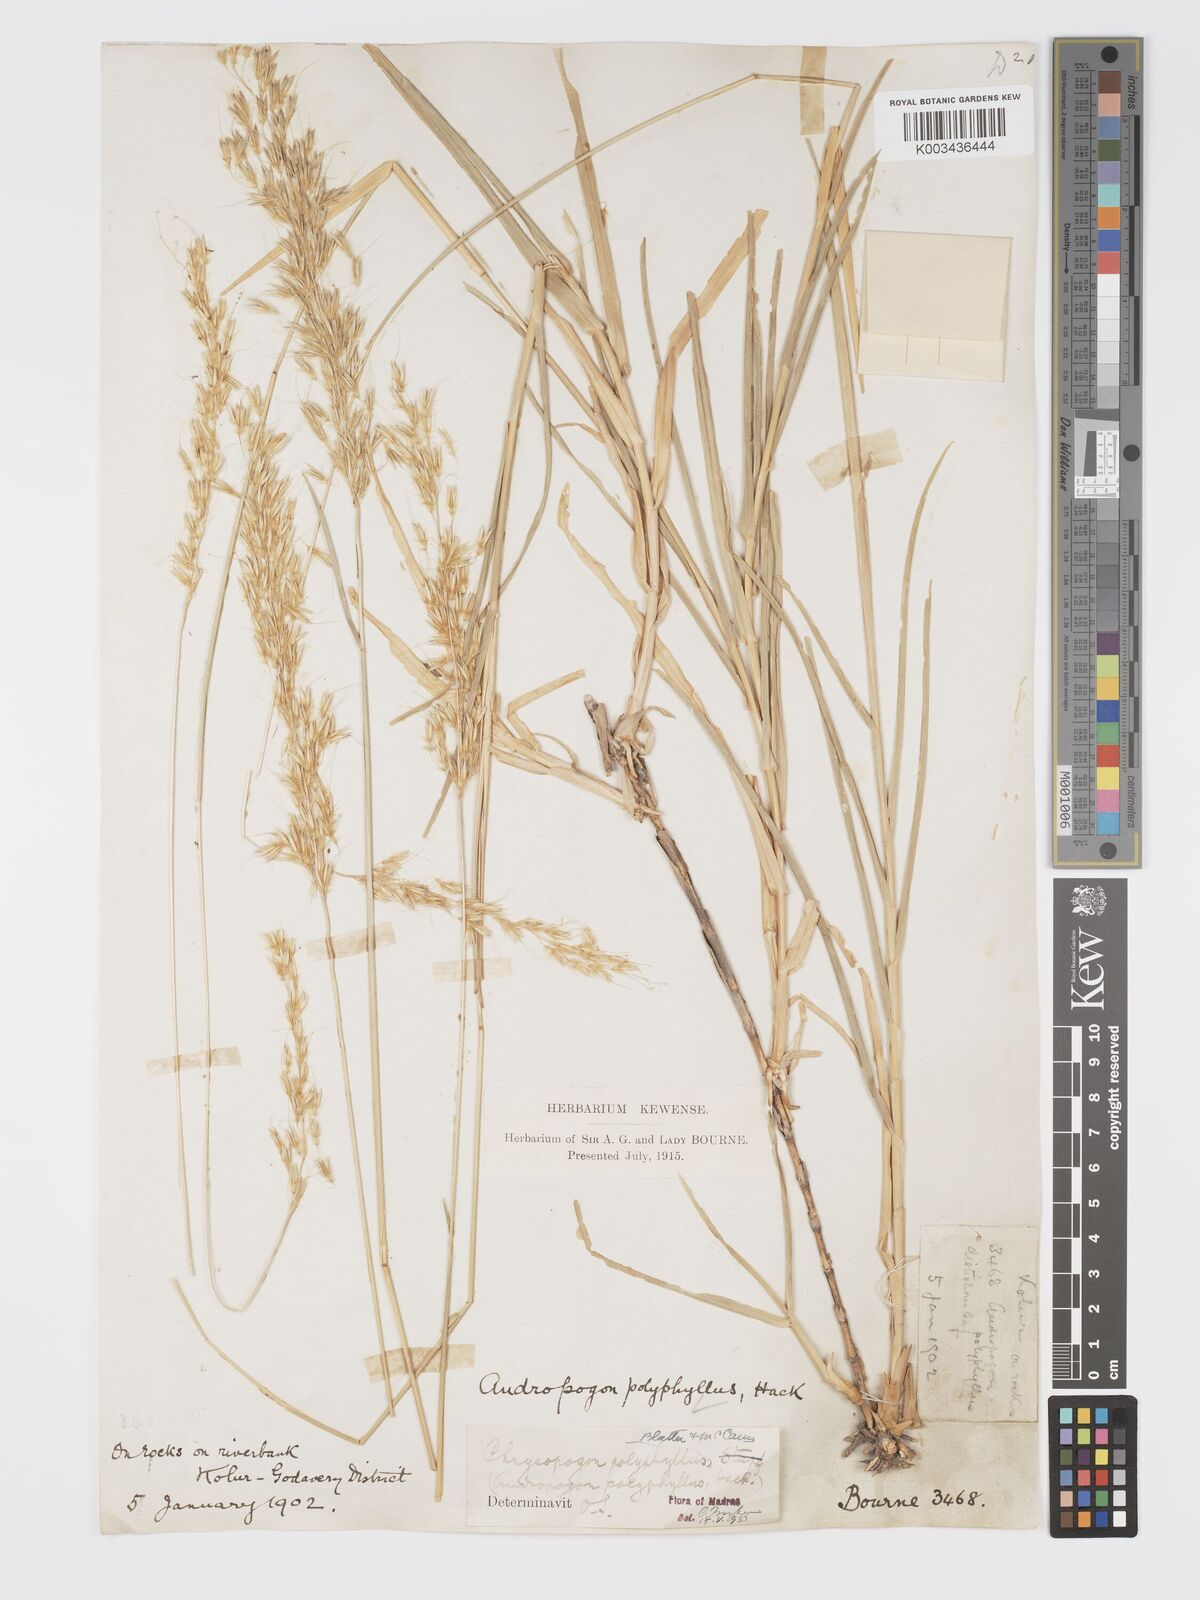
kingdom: Plantae
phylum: Tracheophyta
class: Liliopsida
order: Poales
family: Poaceae
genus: Chrysopogon
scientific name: Chrysopogon polyphyllus
